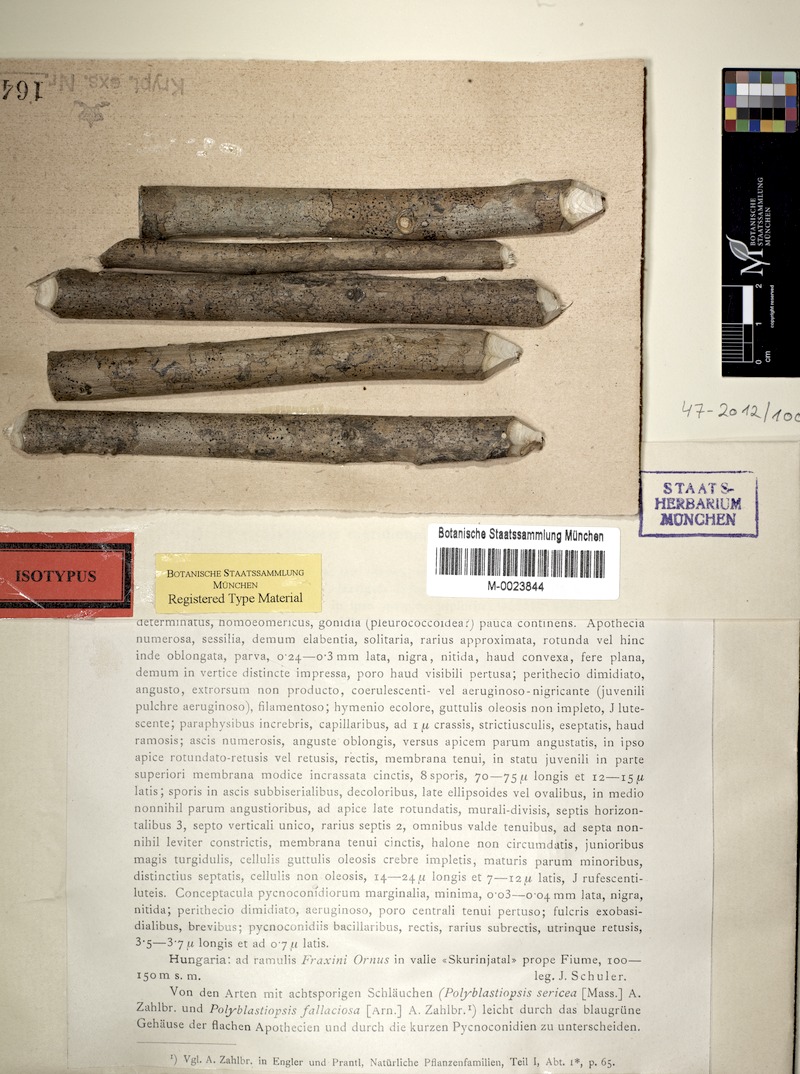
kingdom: Fungi
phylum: Ascomycota
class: Dothideomycetes
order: Dothideales
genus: Mycoglaena
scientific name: Mycoglaena meridionalis
